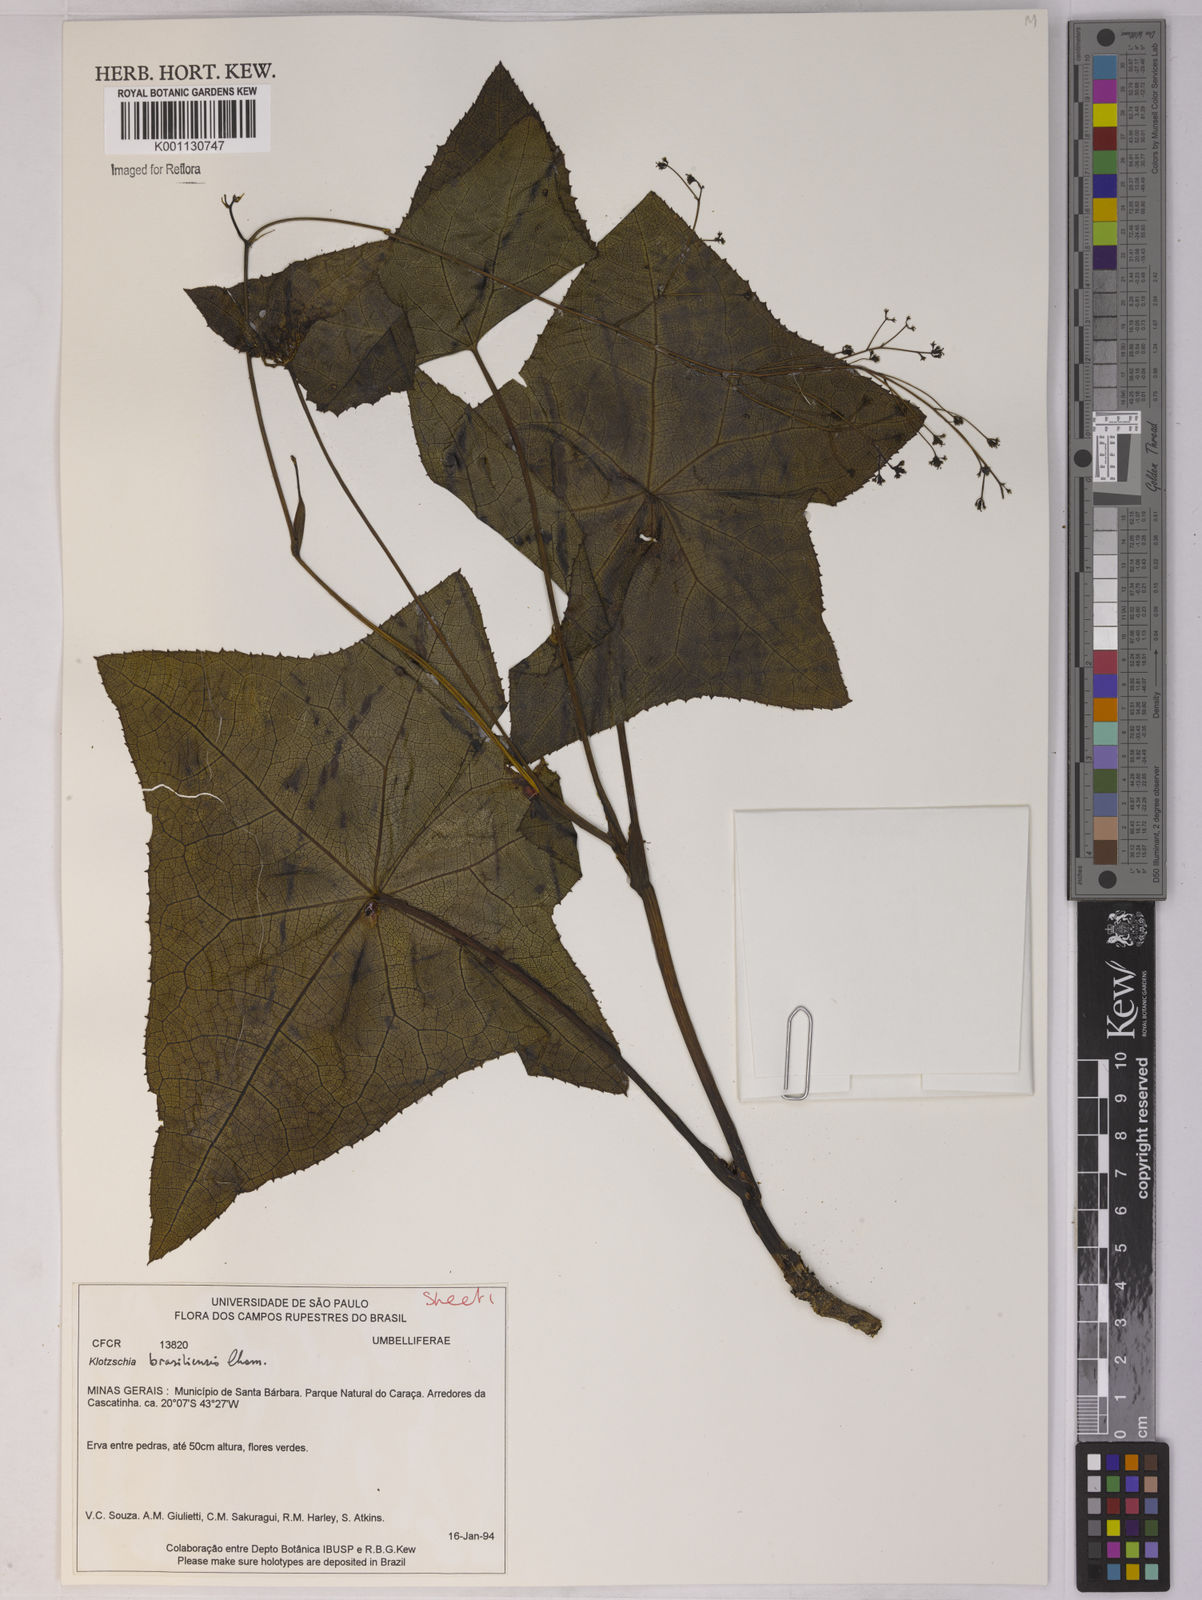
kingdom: Plantae
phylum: Tracheophyta
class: Magnoliopsida
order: Apiales
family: Apiaceae
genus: Klotzschia
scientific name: Klotzschia brasiliensis
